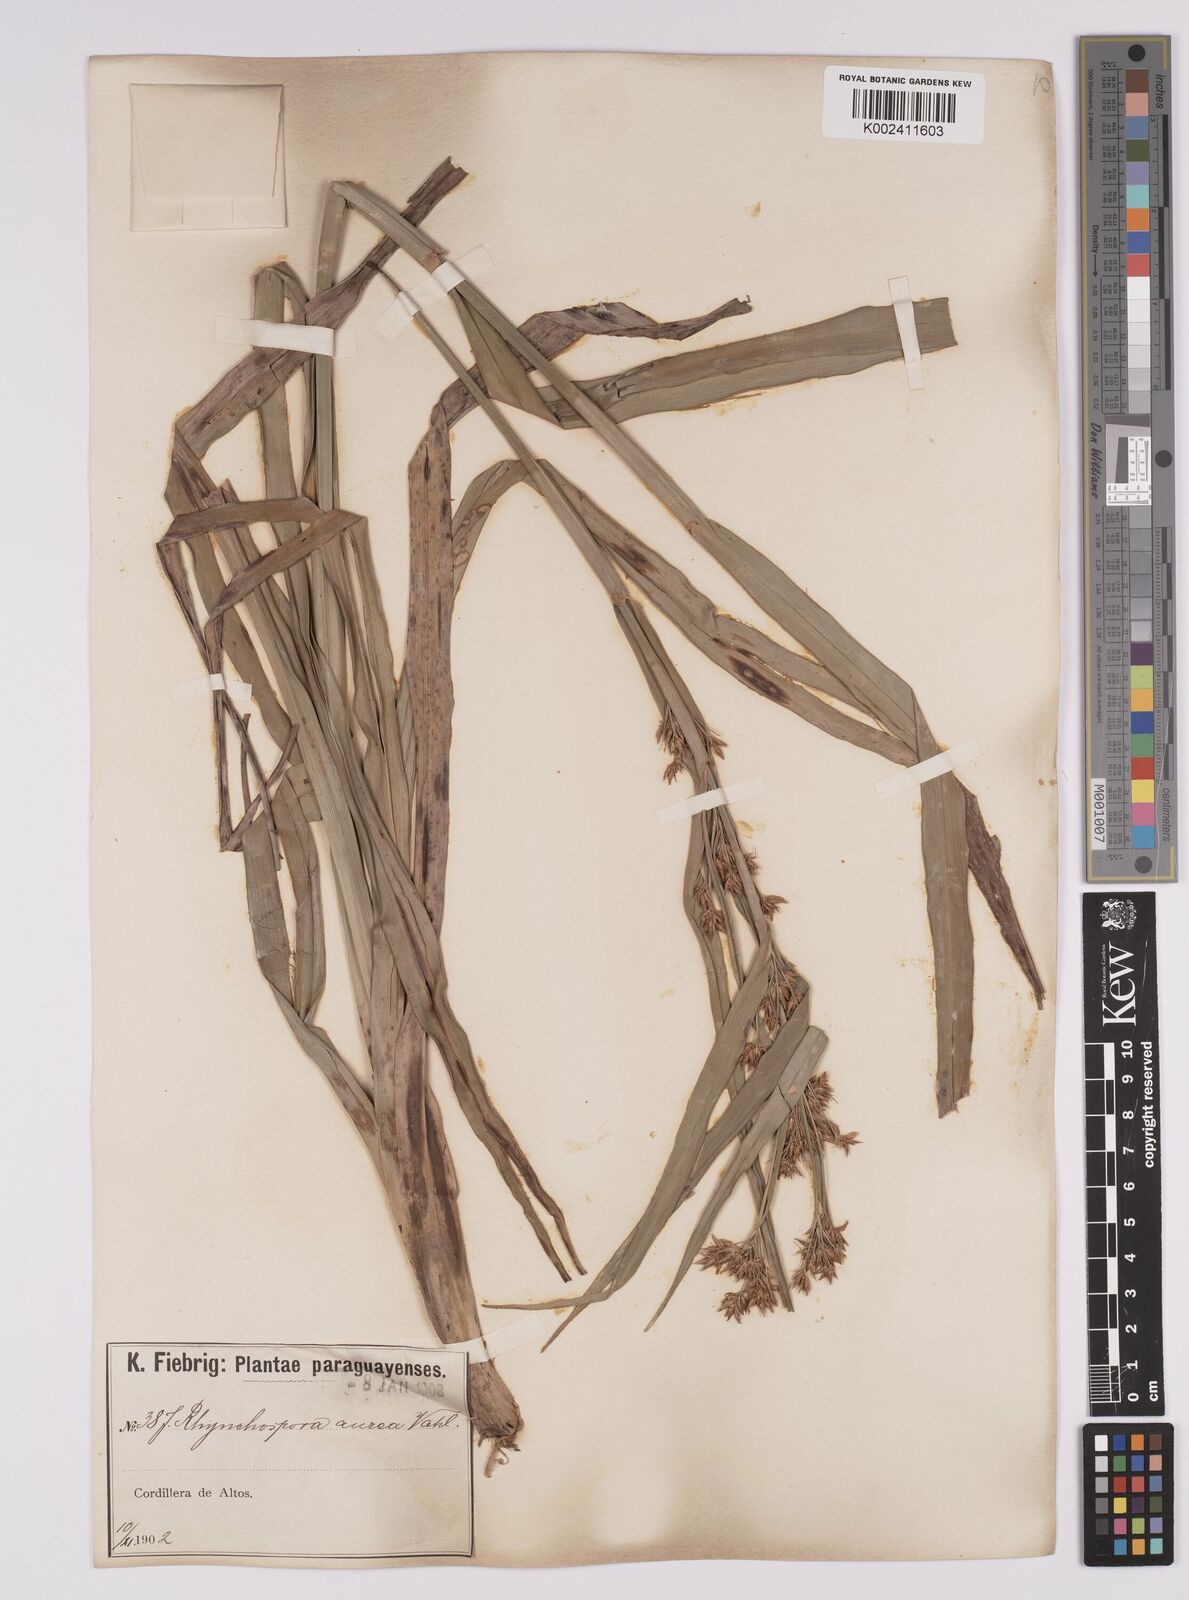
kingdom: Plantae
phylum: Tracheophyta
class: Liliopsida
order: Poales
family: Cyperaceae
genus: Rhynchospora
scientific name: Rhynchospora corymbosa
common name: Golden beak sedge
